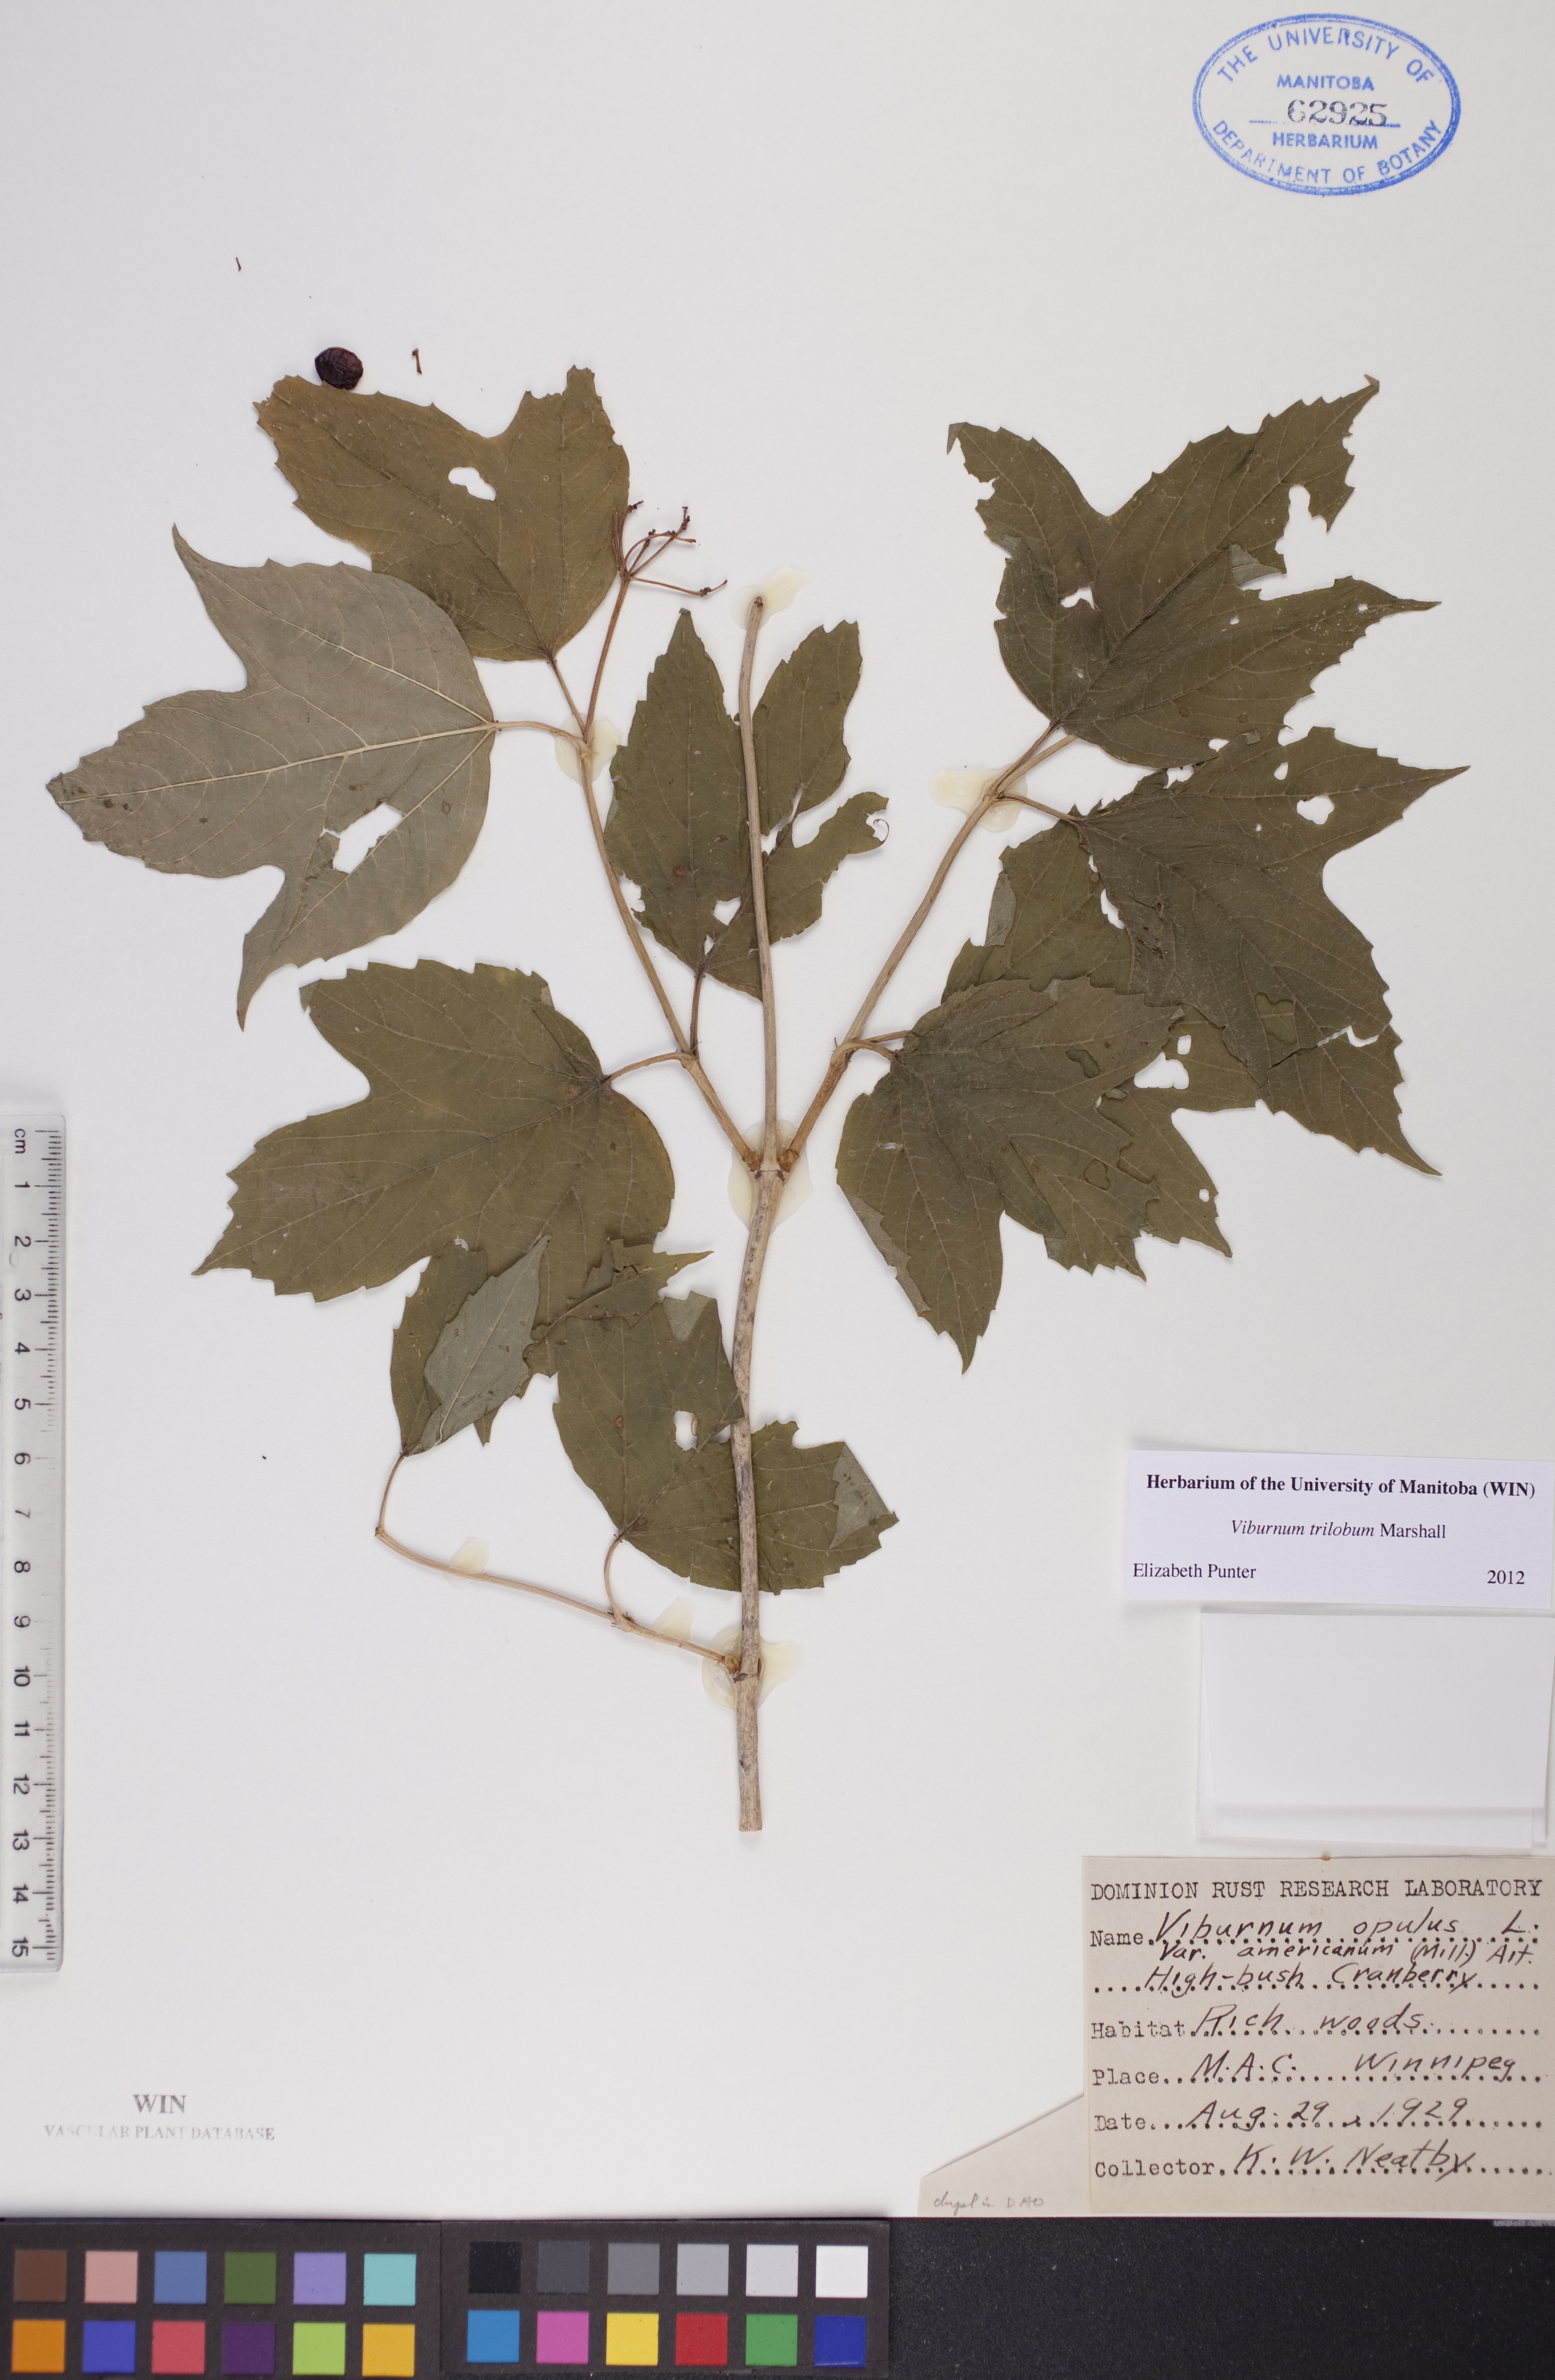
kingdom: Plantae
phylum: Tracheophyta
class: Magnoliopsida
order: Dipsacales
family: Viburnaceae
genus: Viburnum
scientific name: Viburnum trilobum
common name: American cranberrybush
